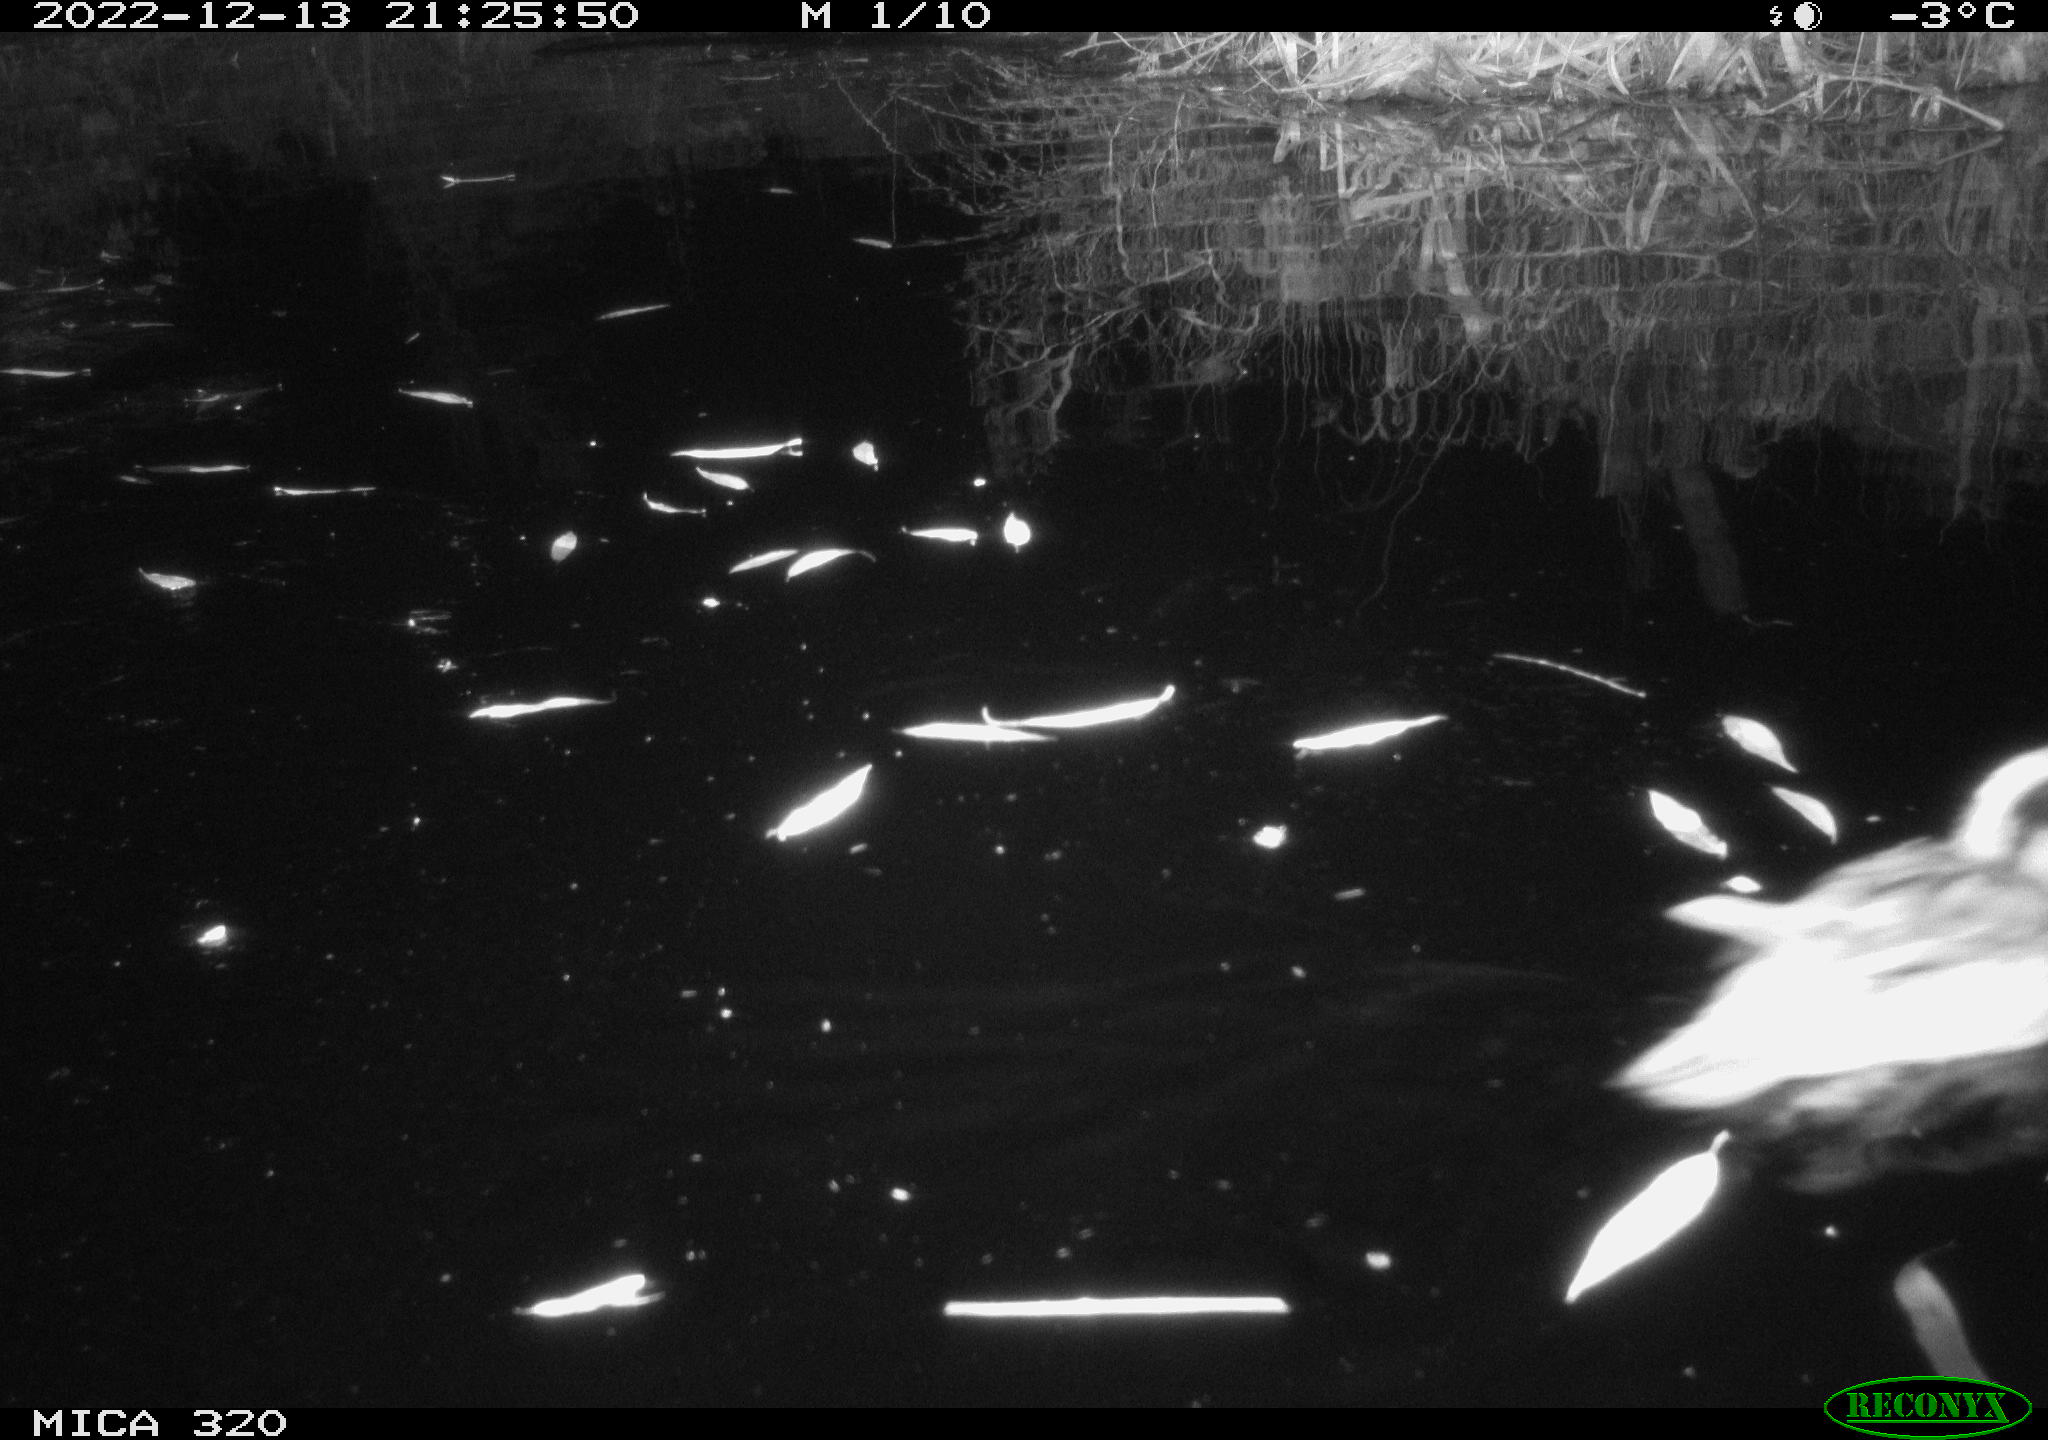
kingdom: Animalia
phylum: Chordata
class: Aves
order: Anseriformes
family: Anatidae
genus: Anas
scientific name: Anas
